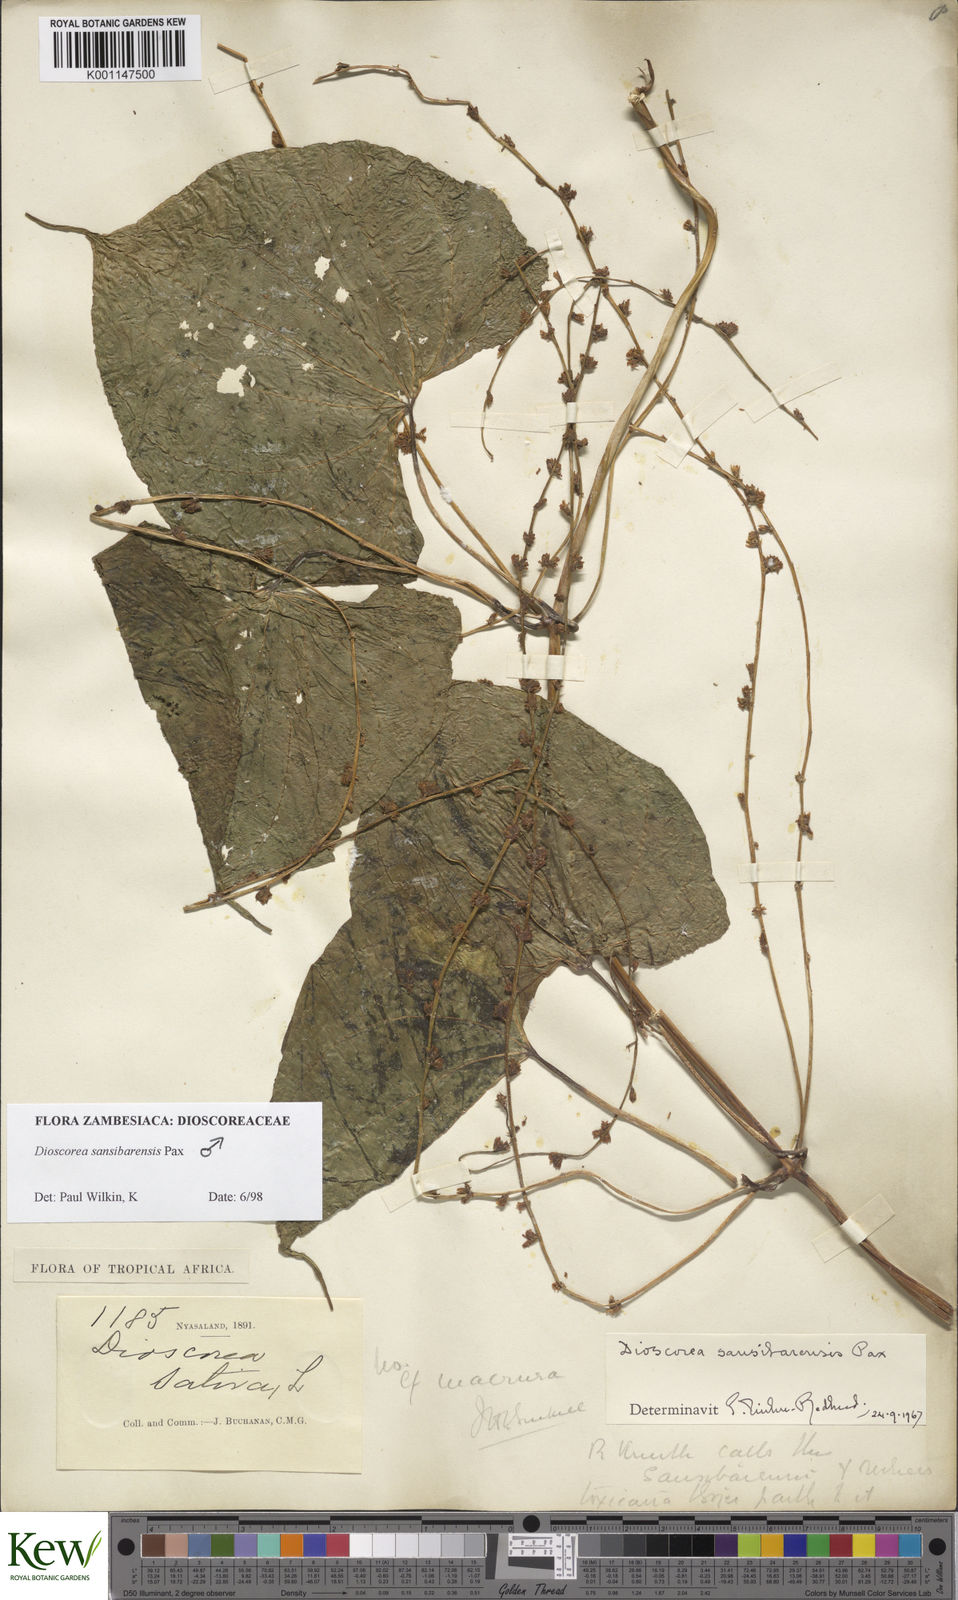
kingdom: Plantae
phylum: Tracheophyta
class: Liliopsida
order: Dioscoreales
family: Dioscoreaceae
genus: Dioscorea
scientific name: Dioscorea sansibarensis
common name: Zanzibar yam
